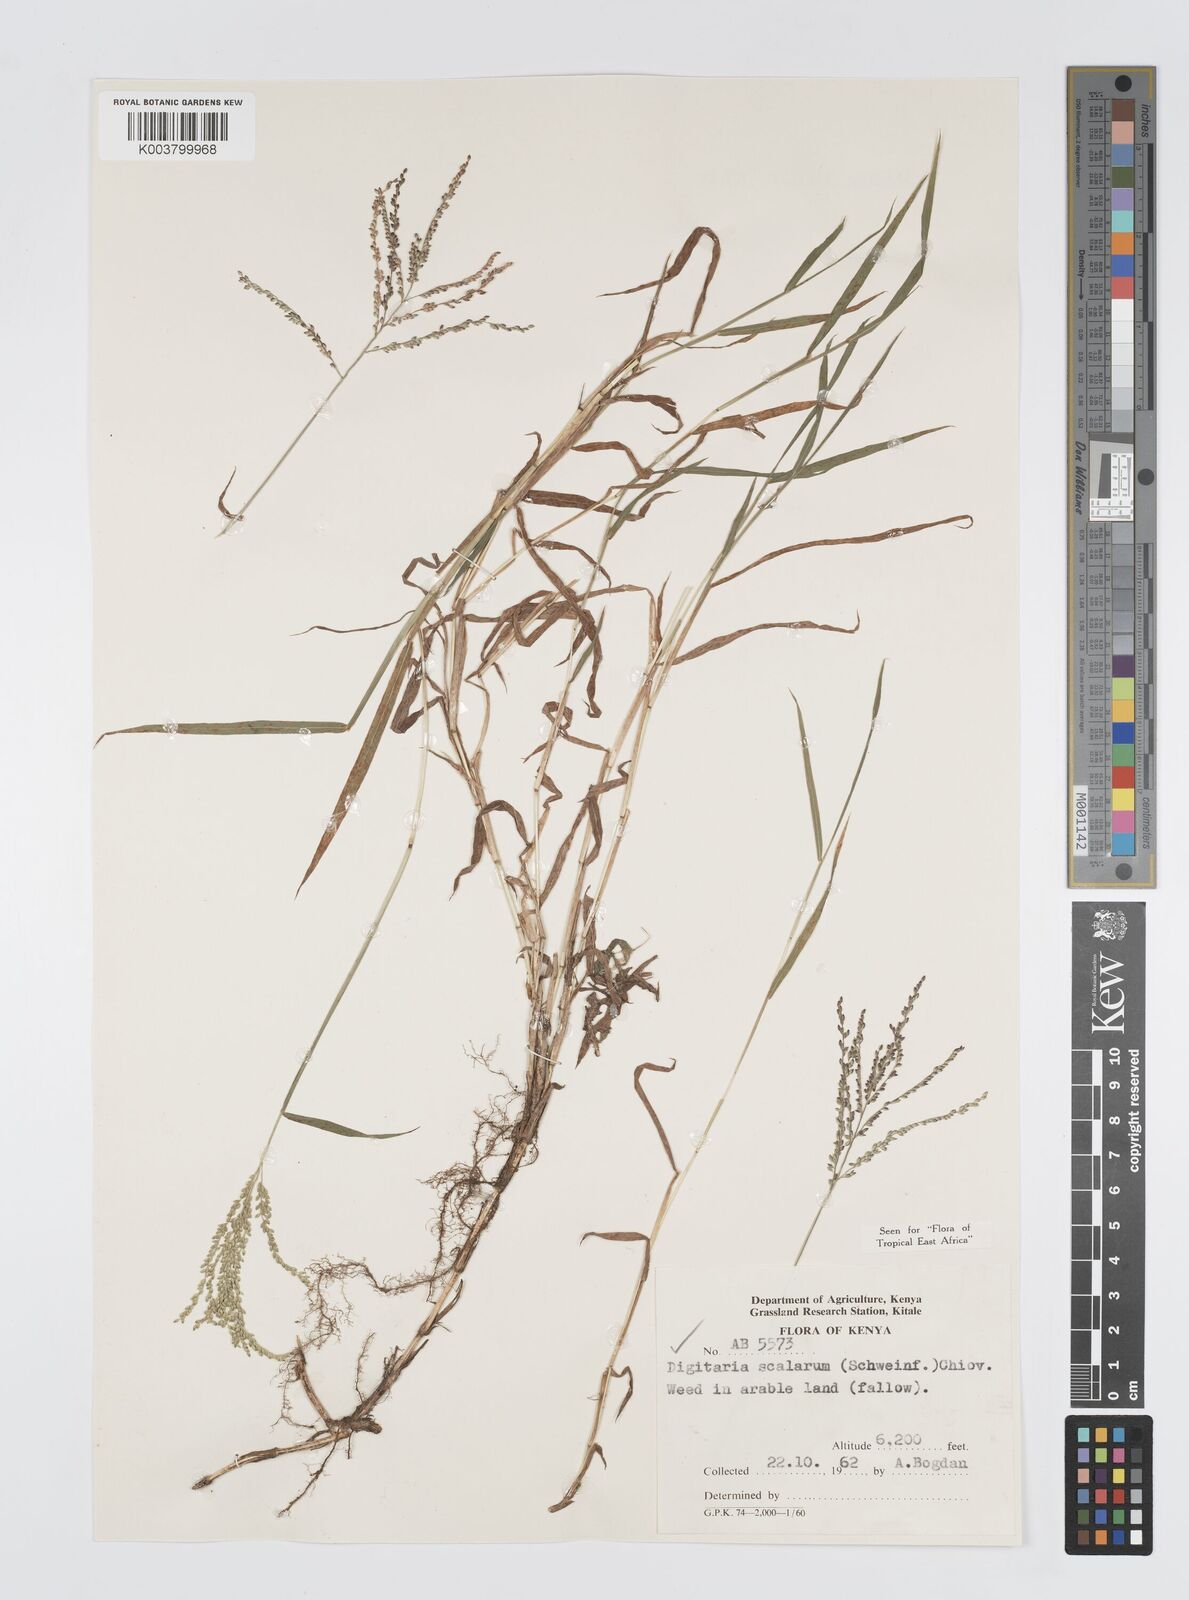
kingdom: Plantae
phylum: Tracheophyta
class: Liliopsida
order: Poales
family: Poaceae
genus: Digitaria
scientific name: Digitaria abyssinica
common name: African couchgrass
